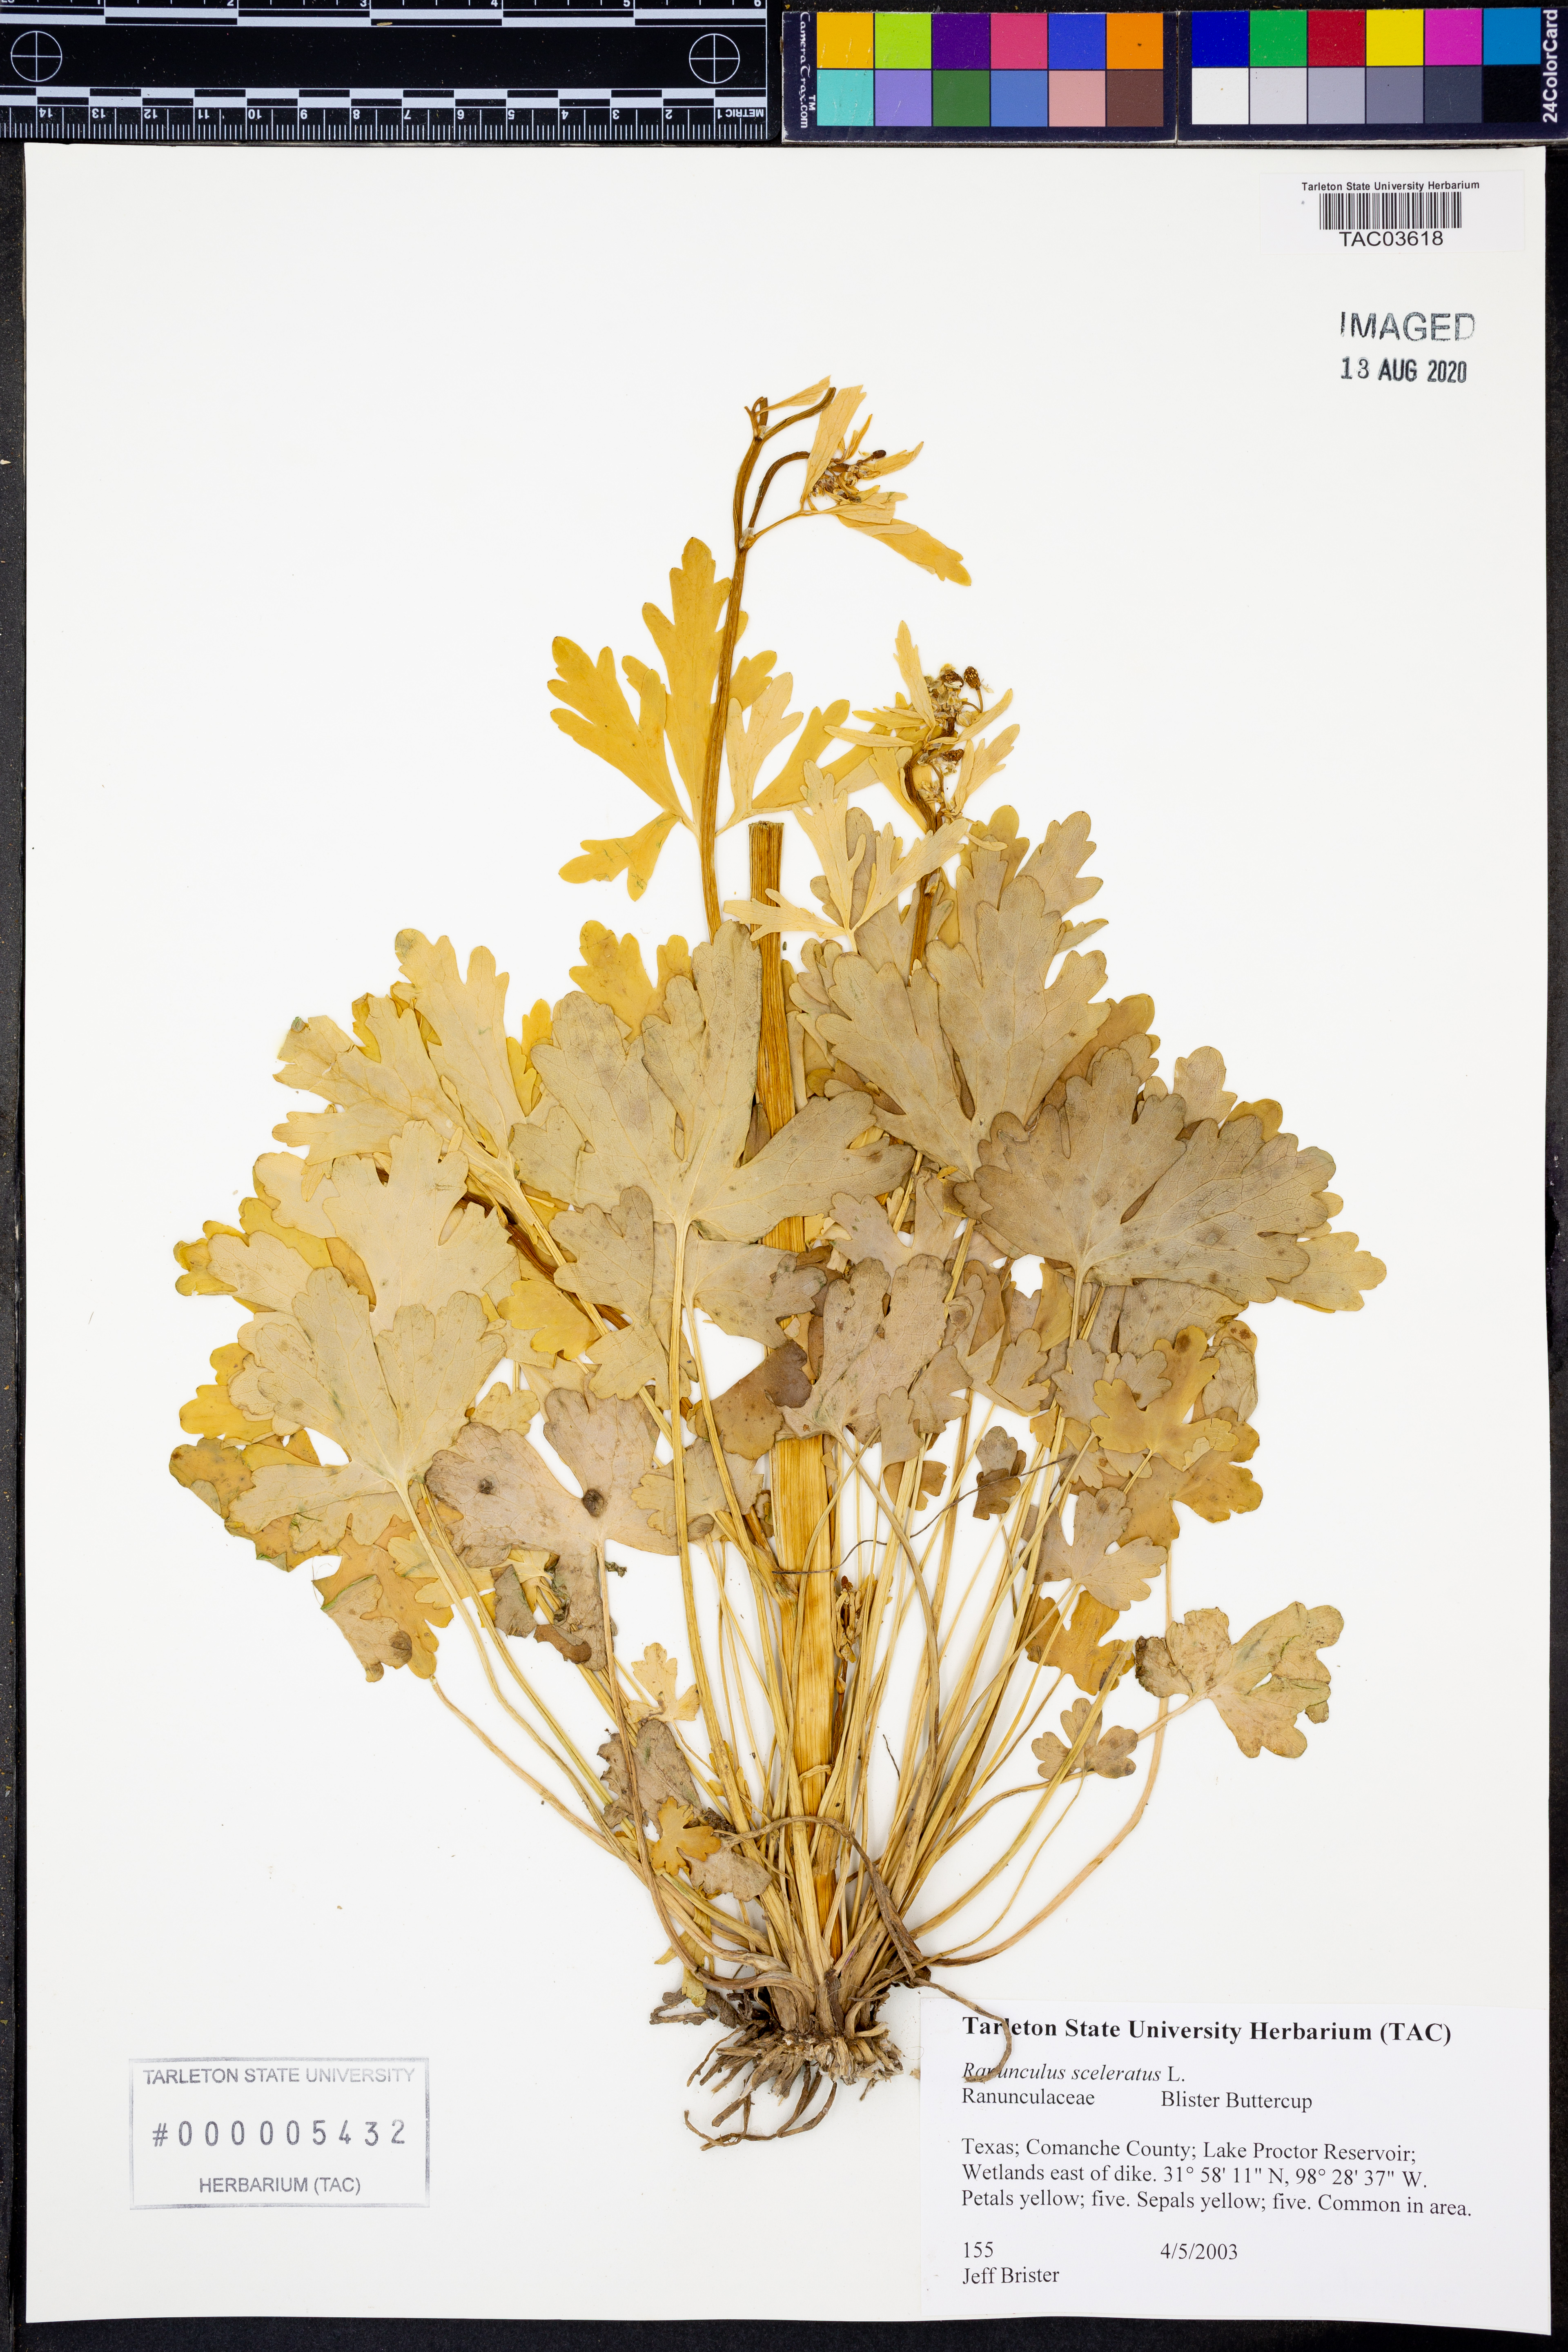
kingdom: Plantae
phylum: Tracheophyta
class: Magnoliopsida
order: Ranunculales
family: Ranunculaceae
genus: Ranunculus
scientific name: Ranunculus sceleratus
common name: Celery-leaved buttercup
